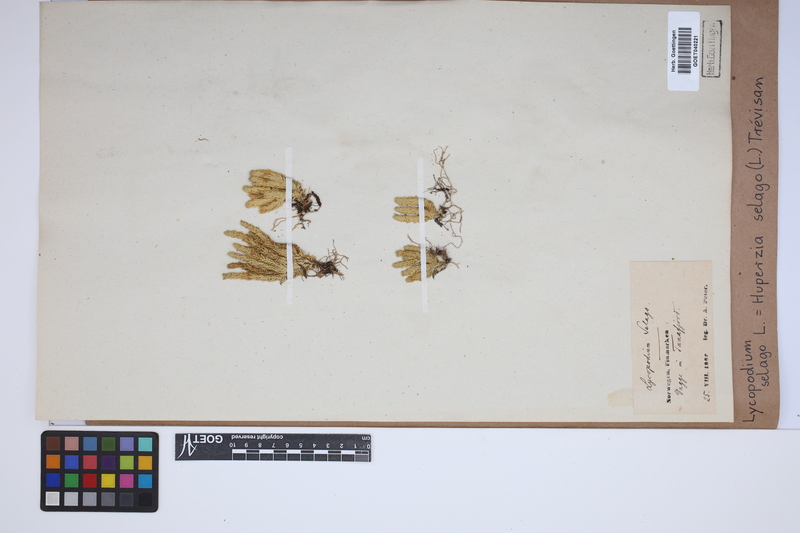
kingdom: Plantae
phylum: Tracheophyta
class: Lycopodiopsida
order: Lycopodiales
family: Lycopodiaceae
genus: Huperzia
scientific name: Huperzia selago
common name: Northern firmoss
